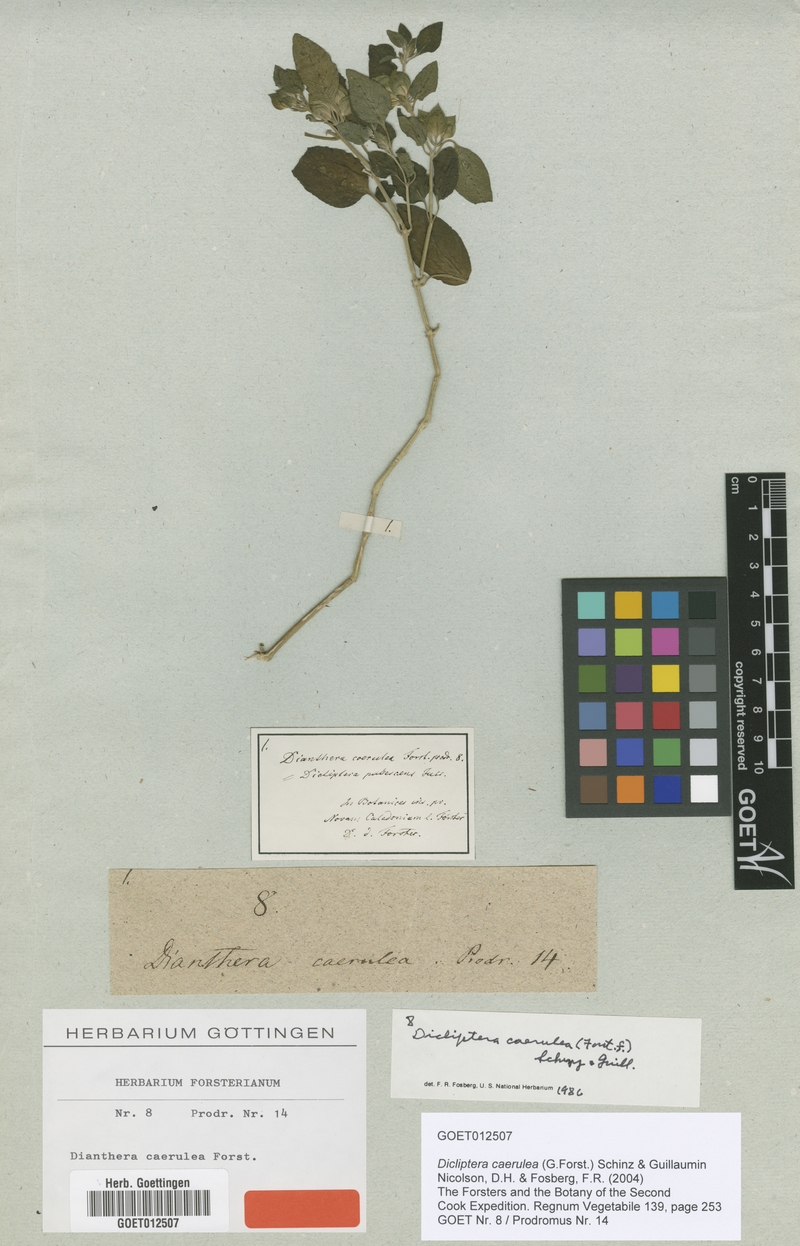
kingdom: Plantae
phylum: Tracheophyta
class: Magnoliopsida
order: Lamiales
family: Acanthaceae
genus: Dicliptera
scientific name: Dicliptera caerulea
